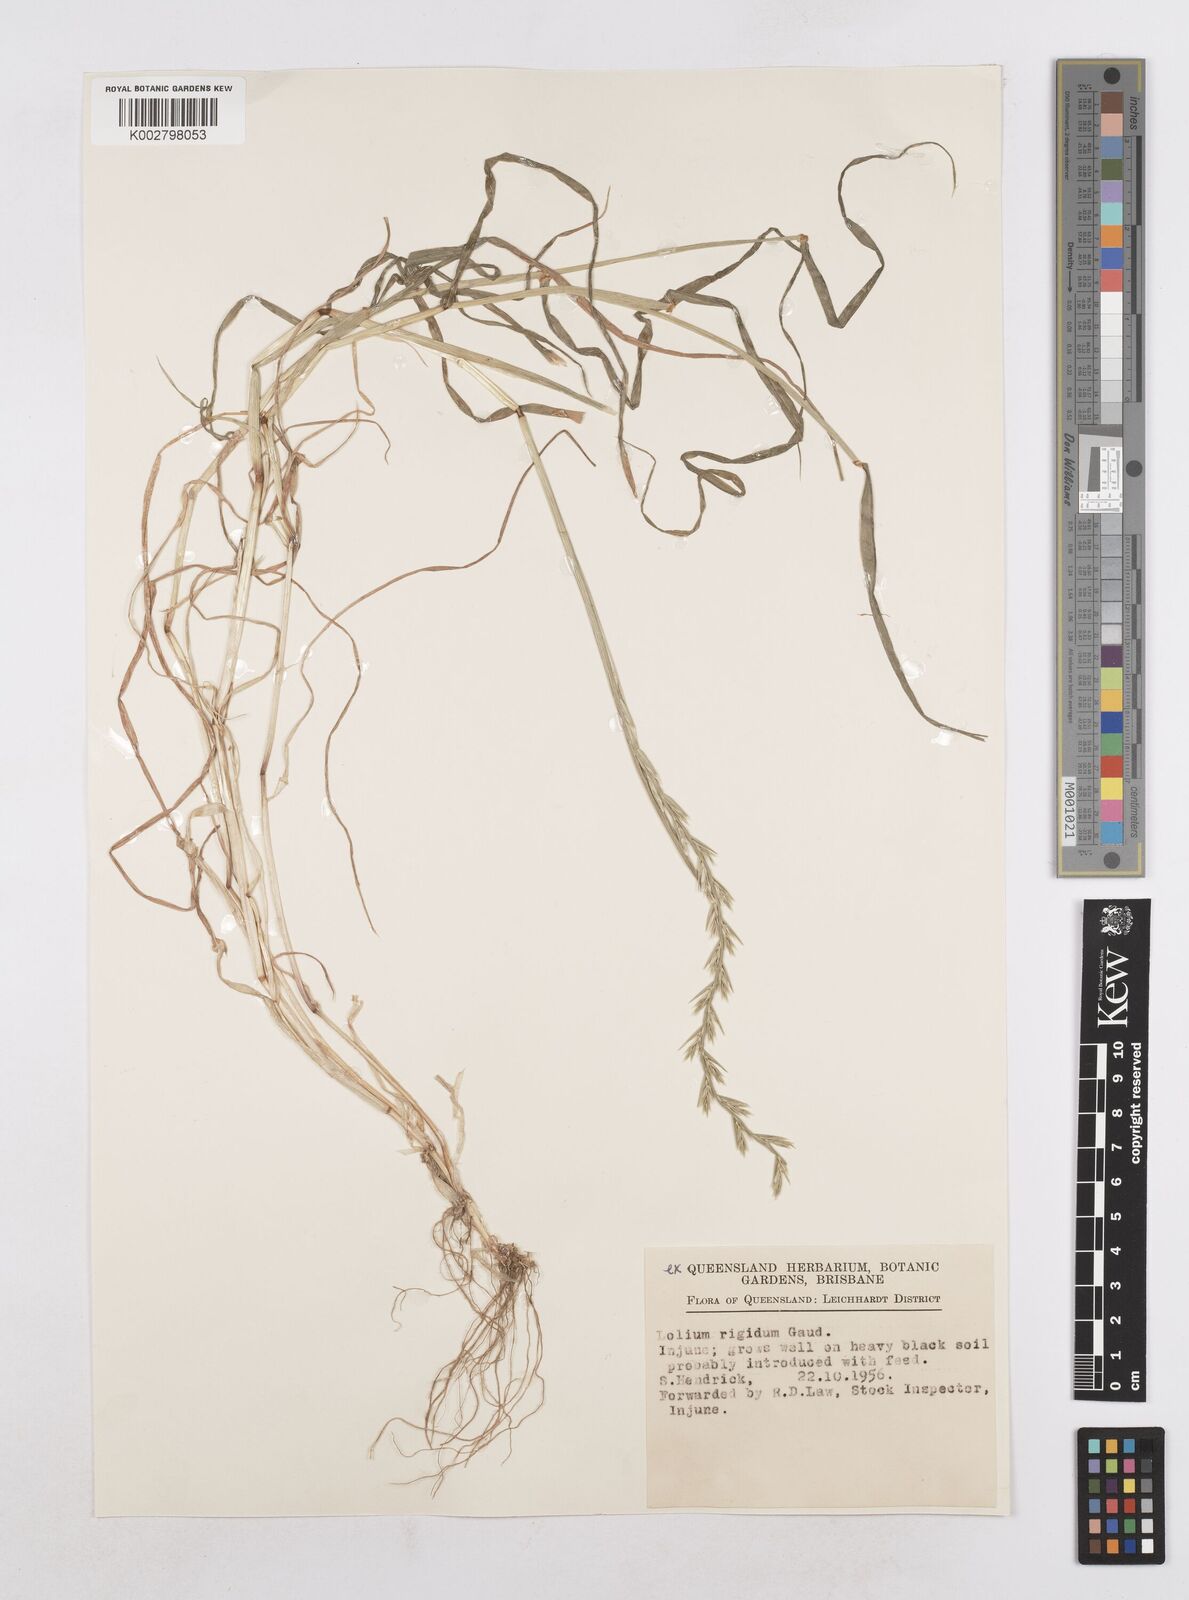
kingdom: Plantae
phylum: Tracheophyta
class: Liliopsida
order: Poales
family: Poaceae
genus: Lolium
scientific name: Lolium
